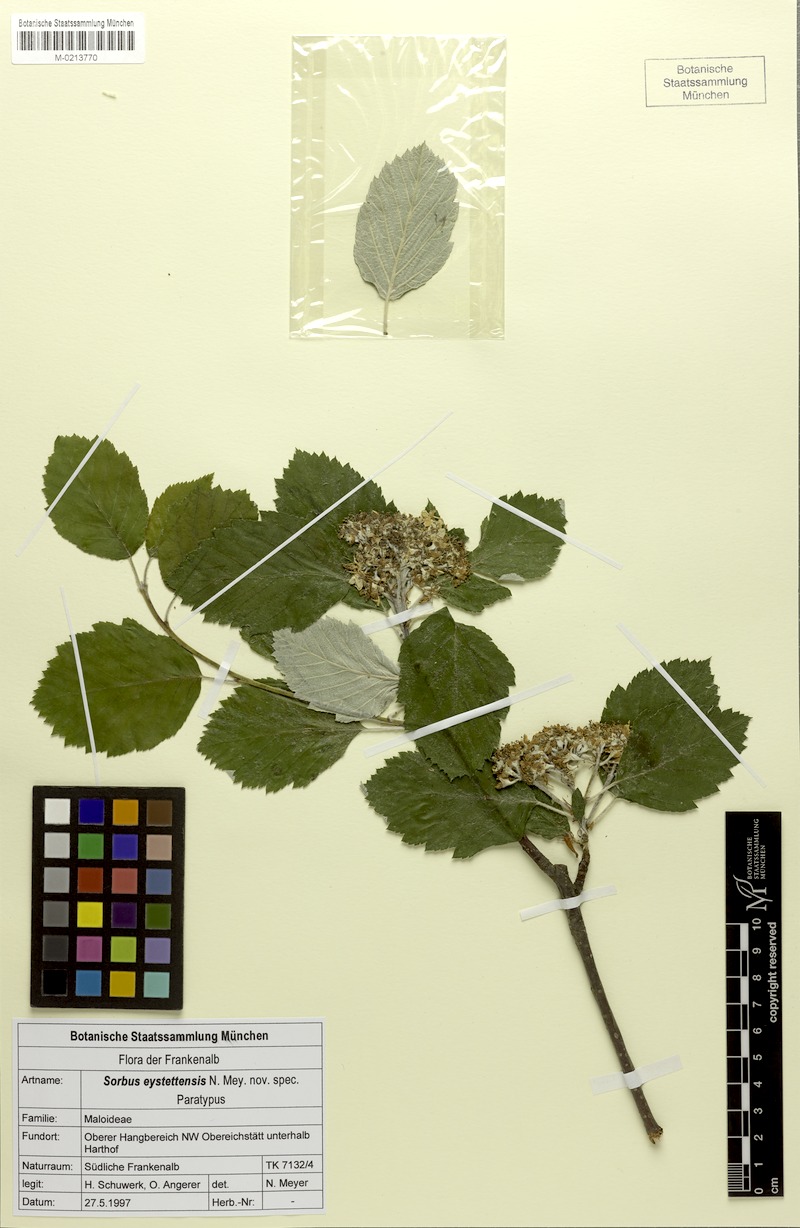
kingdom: Plantae
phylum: Tracheophyta
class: Magnoliopsida
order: Rosales
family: Rosaceae
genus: Karpatiosorbus
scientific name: Karpatiosorbus eystettensis
